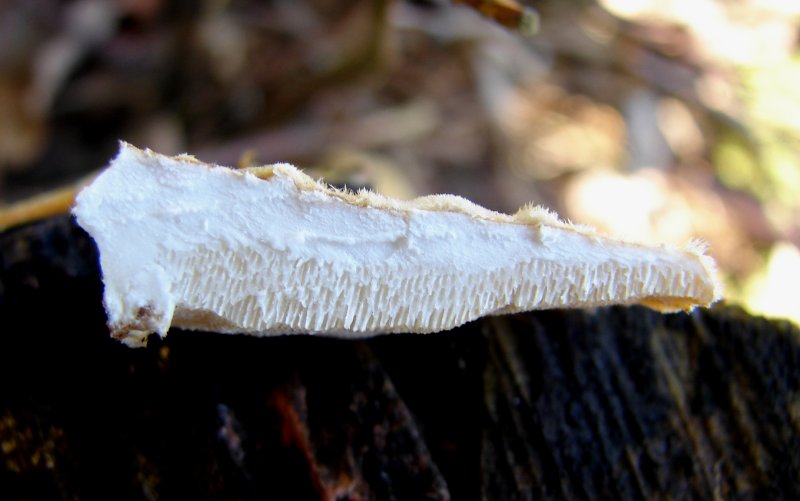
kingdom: Fungi
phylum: Basidiomycota
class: Agaricomycetes
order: Polyporales
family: Polyporaceae
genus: Trametes
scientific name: Trametes ochracea
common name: bæltet læderporesvamp
